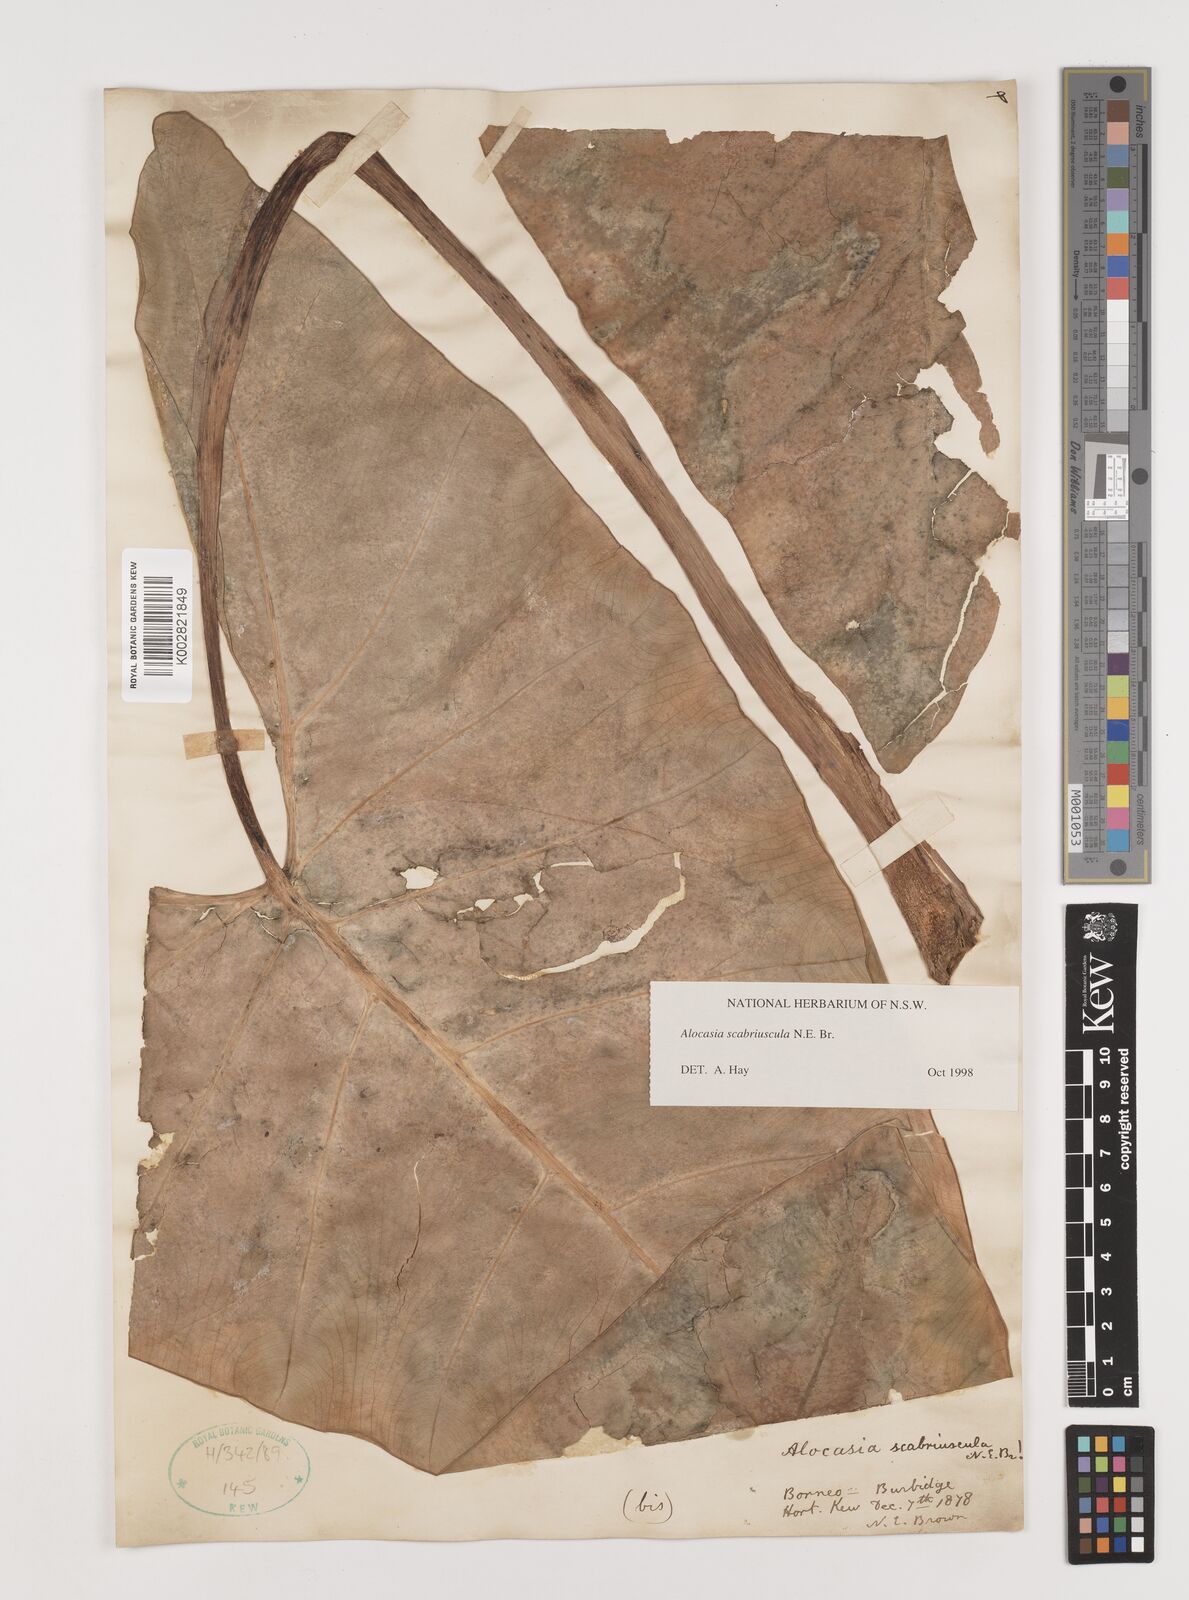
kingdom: Plantae
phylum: Tracheophyta
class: Liliopsida
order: Alismatales
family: Araceae
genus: Alocasia
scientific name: Alocasia scabriuscula
